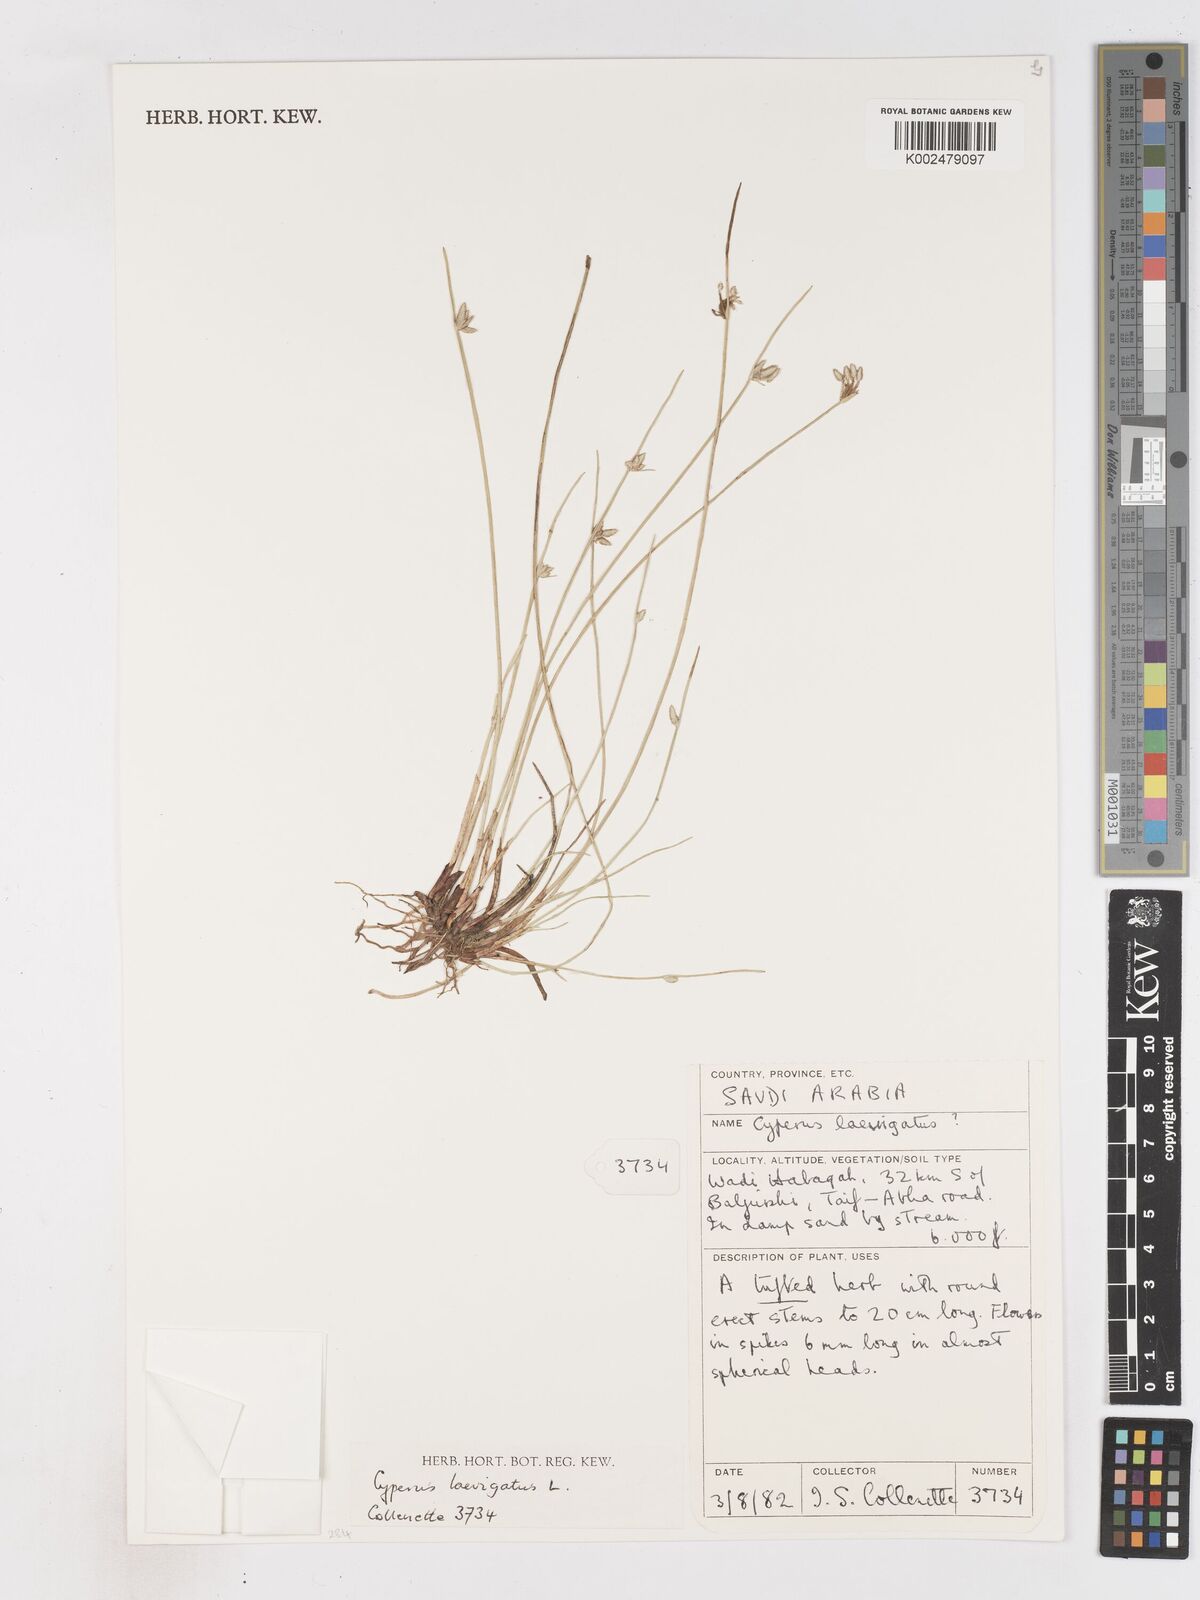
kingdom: Plantae
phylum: Tracheophyta
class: Liliopsida
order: Poales
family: Cyperaceae
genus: Cyperus
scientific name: Cyperus laevigatus
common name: Smooth flat sedge
